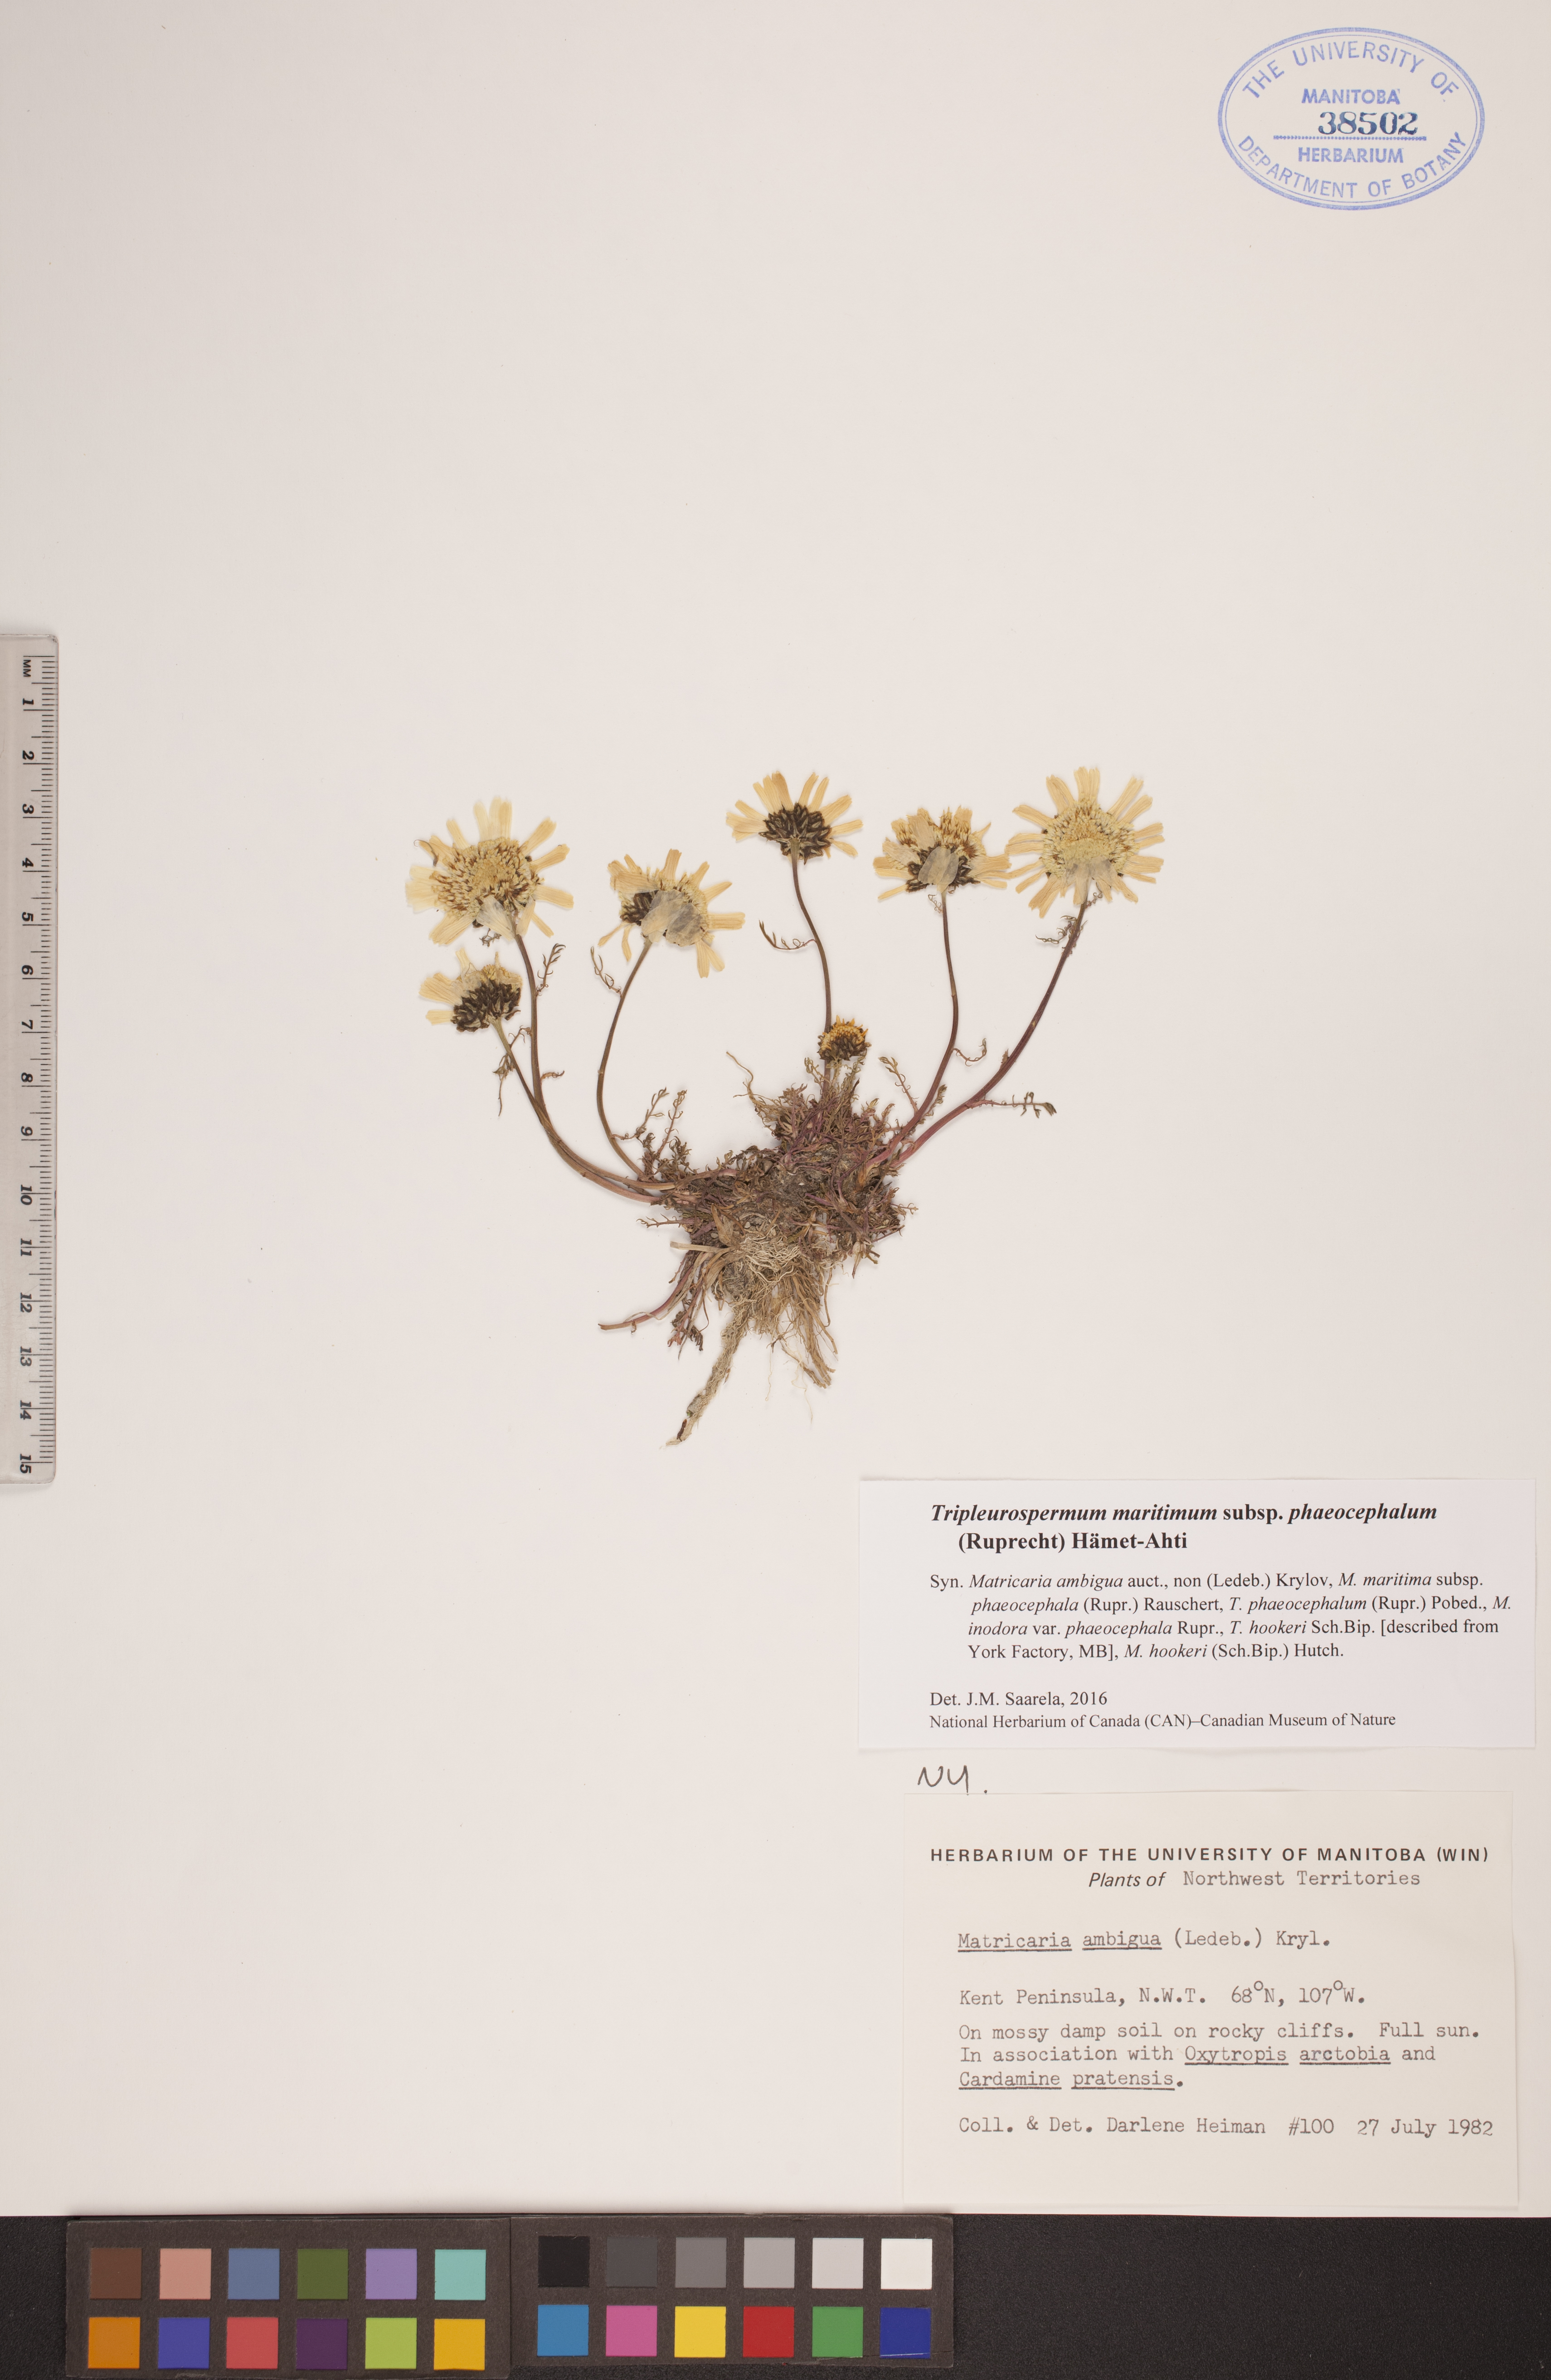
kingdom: Plantae
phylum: Tracheophyta
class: Magnoliopsida
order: Asterales
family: Asteraceae
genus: Tripleurospermum
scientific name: Tripleurospermum hookeri
